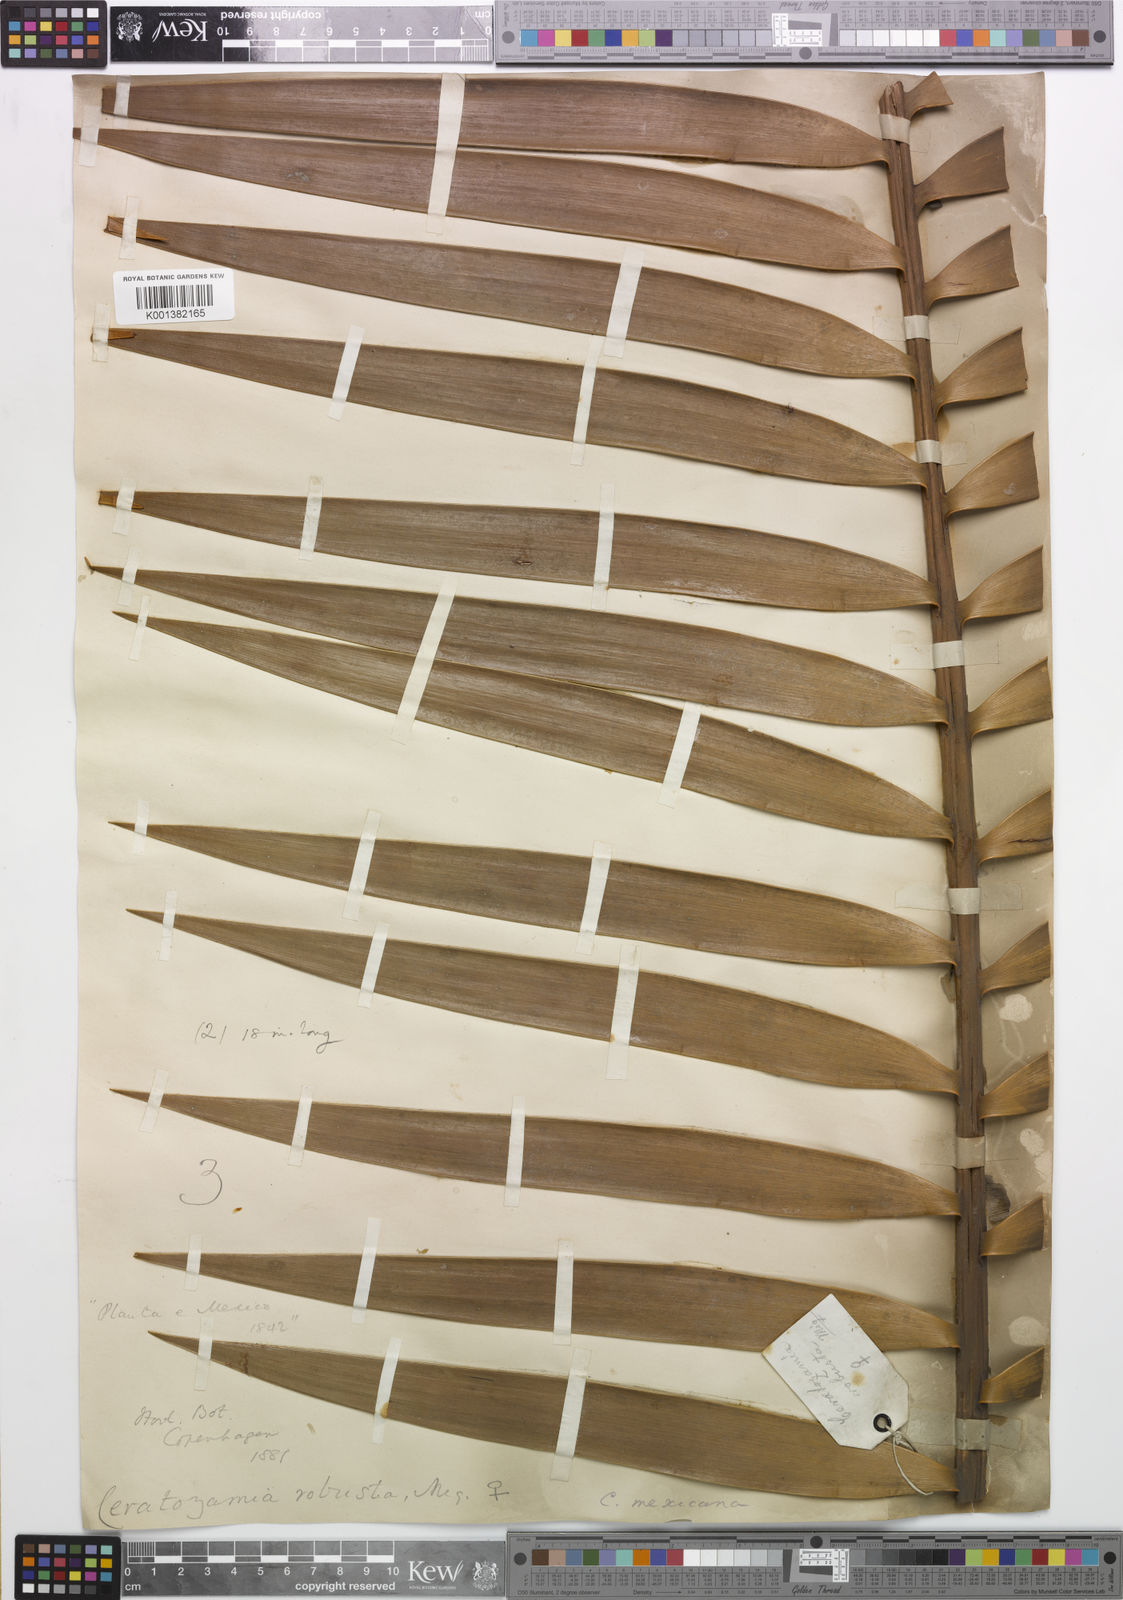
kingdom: Plantae
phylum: Tracheophyta
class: Cycadopsida
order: Cycadales
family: Zamiaceae
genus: Ceratozamia
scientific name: Ceratozamia robusta
